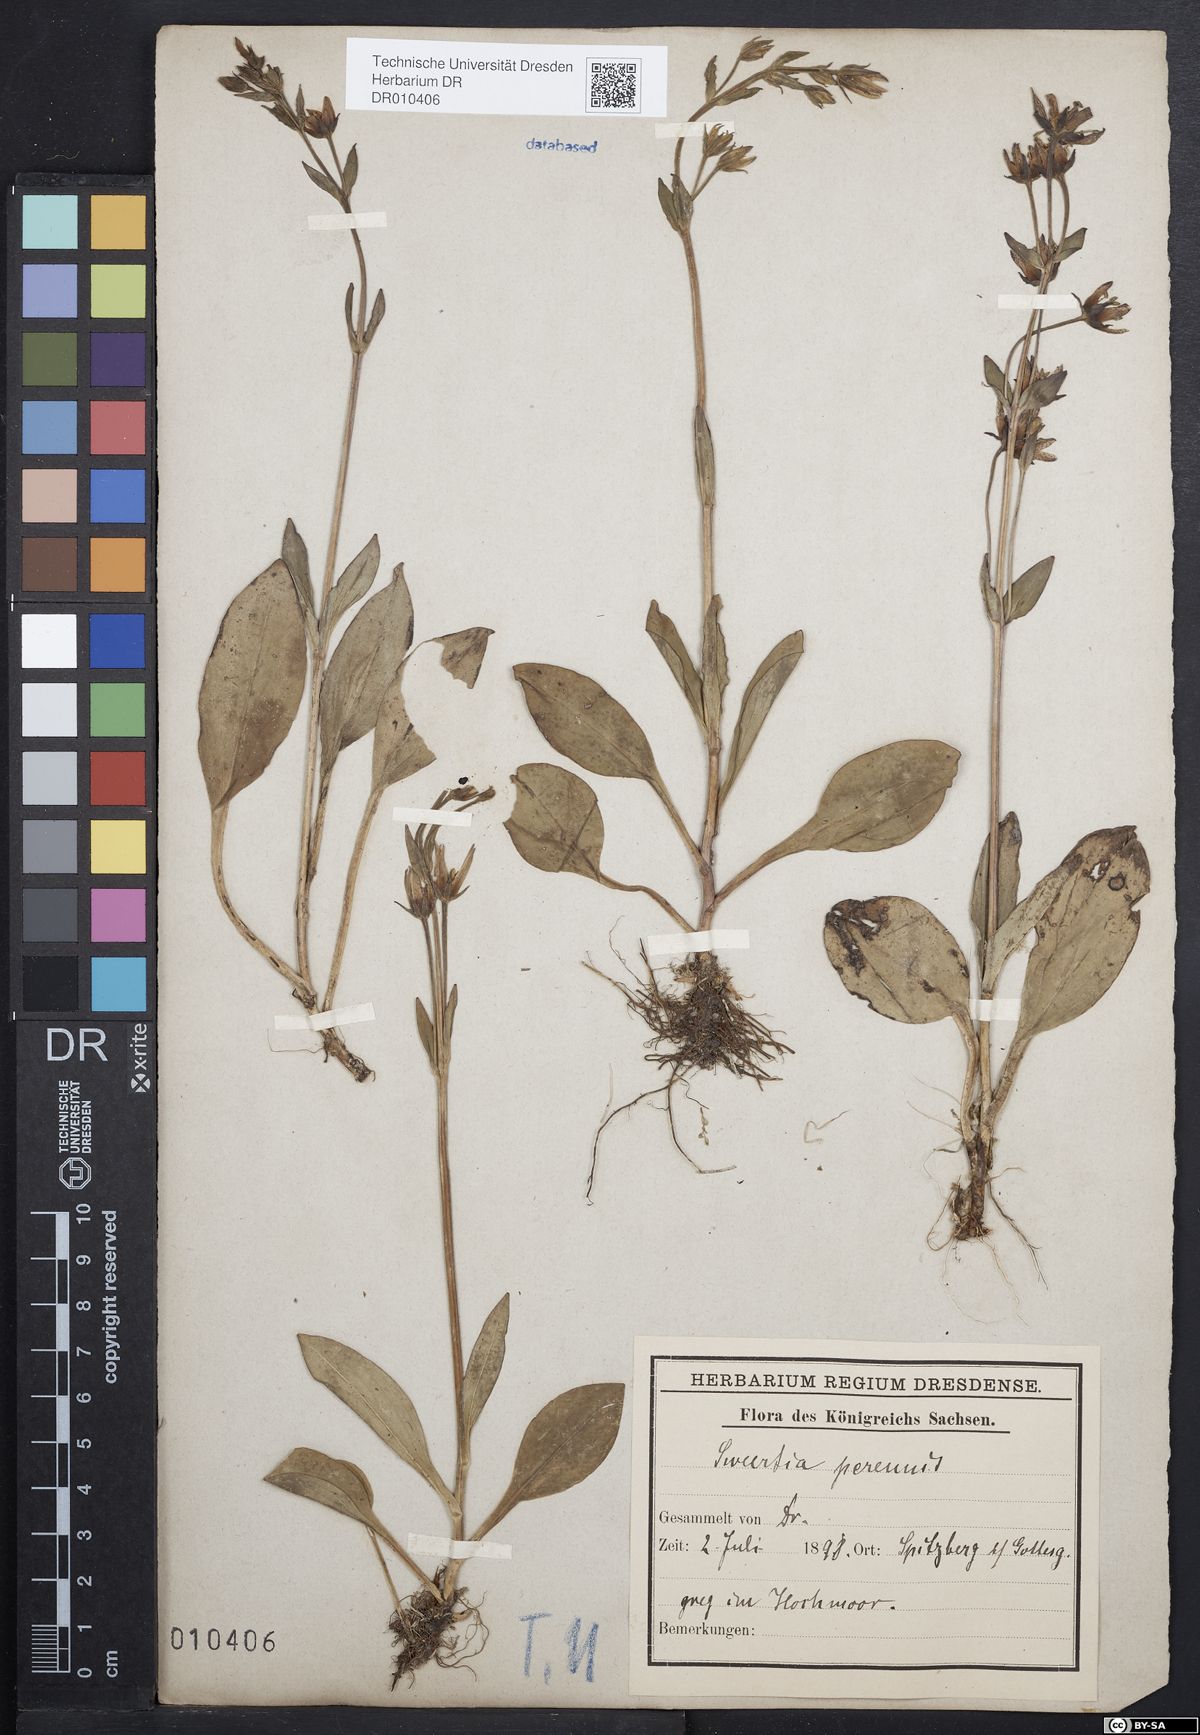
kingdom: Plantae
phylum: Tracheophyta
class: Magnoliopsida
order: Gentianales
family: Gentianaceae
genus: Swertia
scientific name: Swertia perennis
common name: Alpine bog swertia
